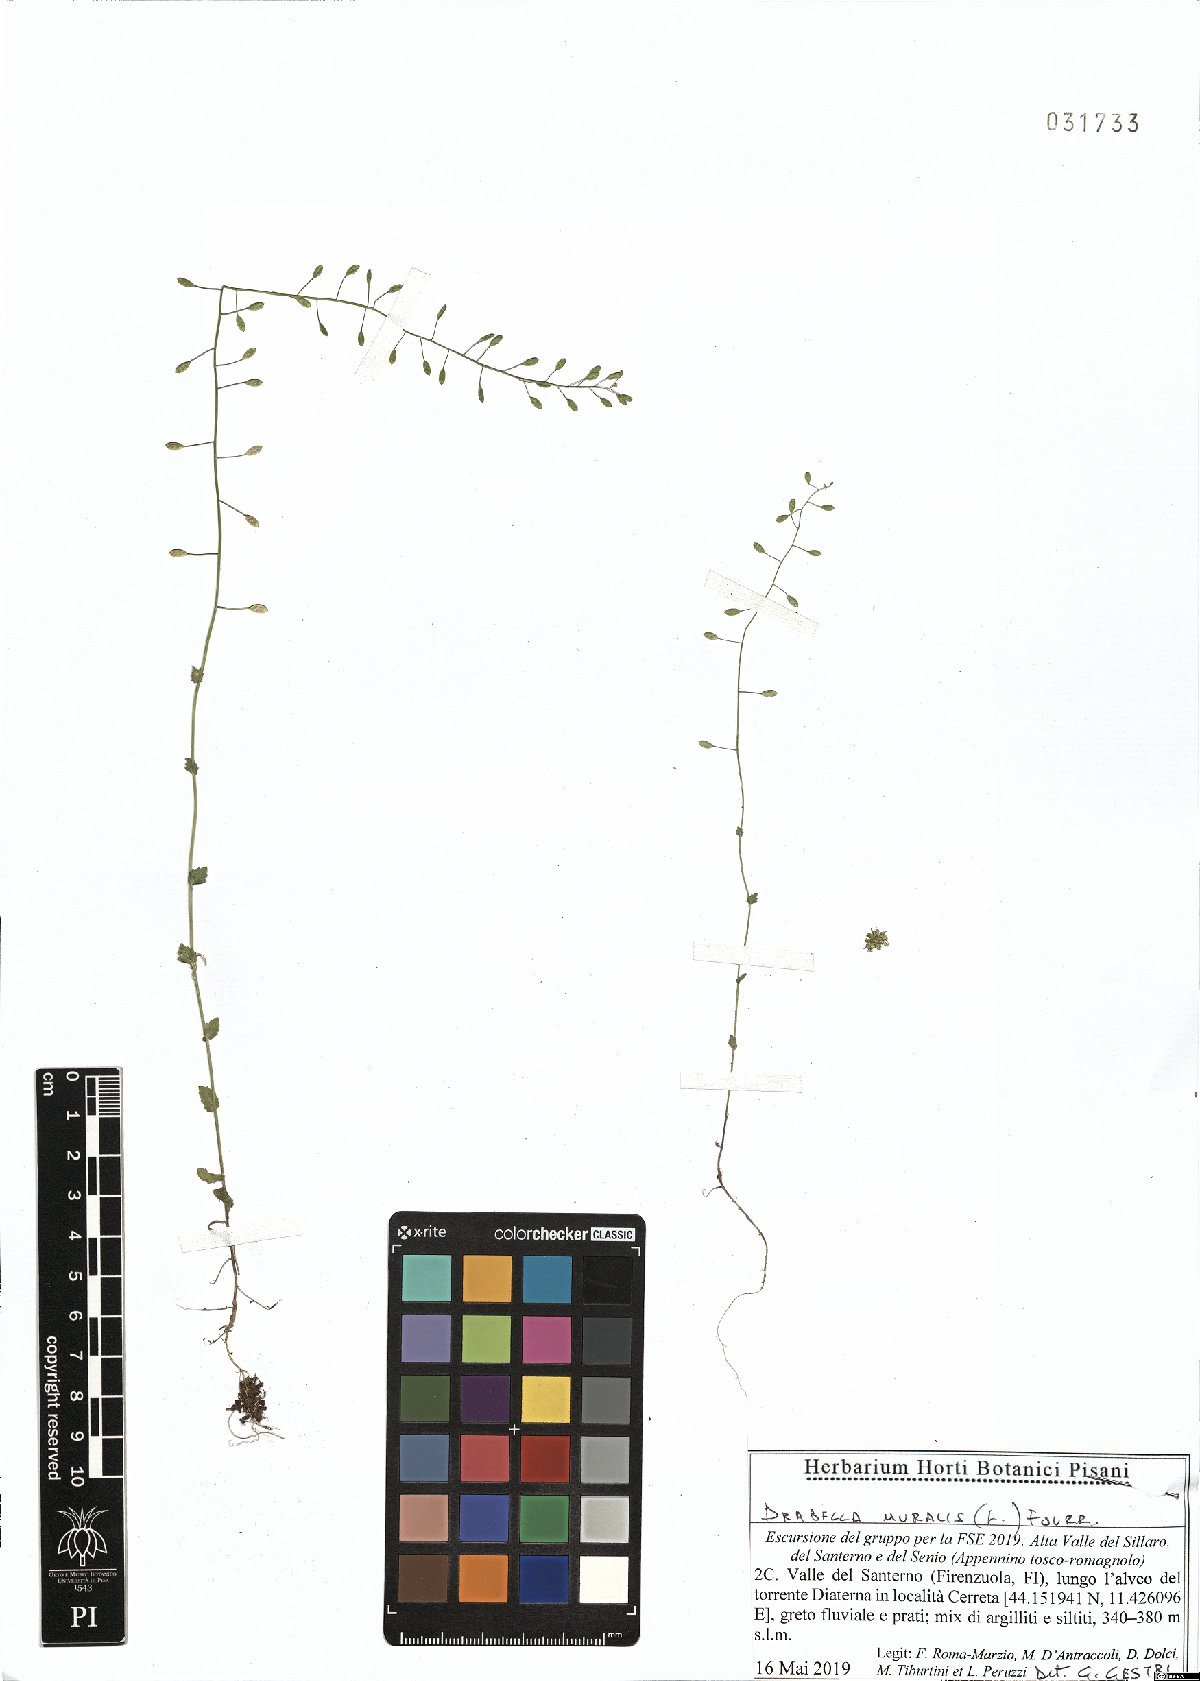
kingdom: Plantae
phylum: Tracheophyta
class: Magnoliopsida
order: Brassicales
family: Brassicaceae
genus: Drabella
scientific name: Drabella muralis
